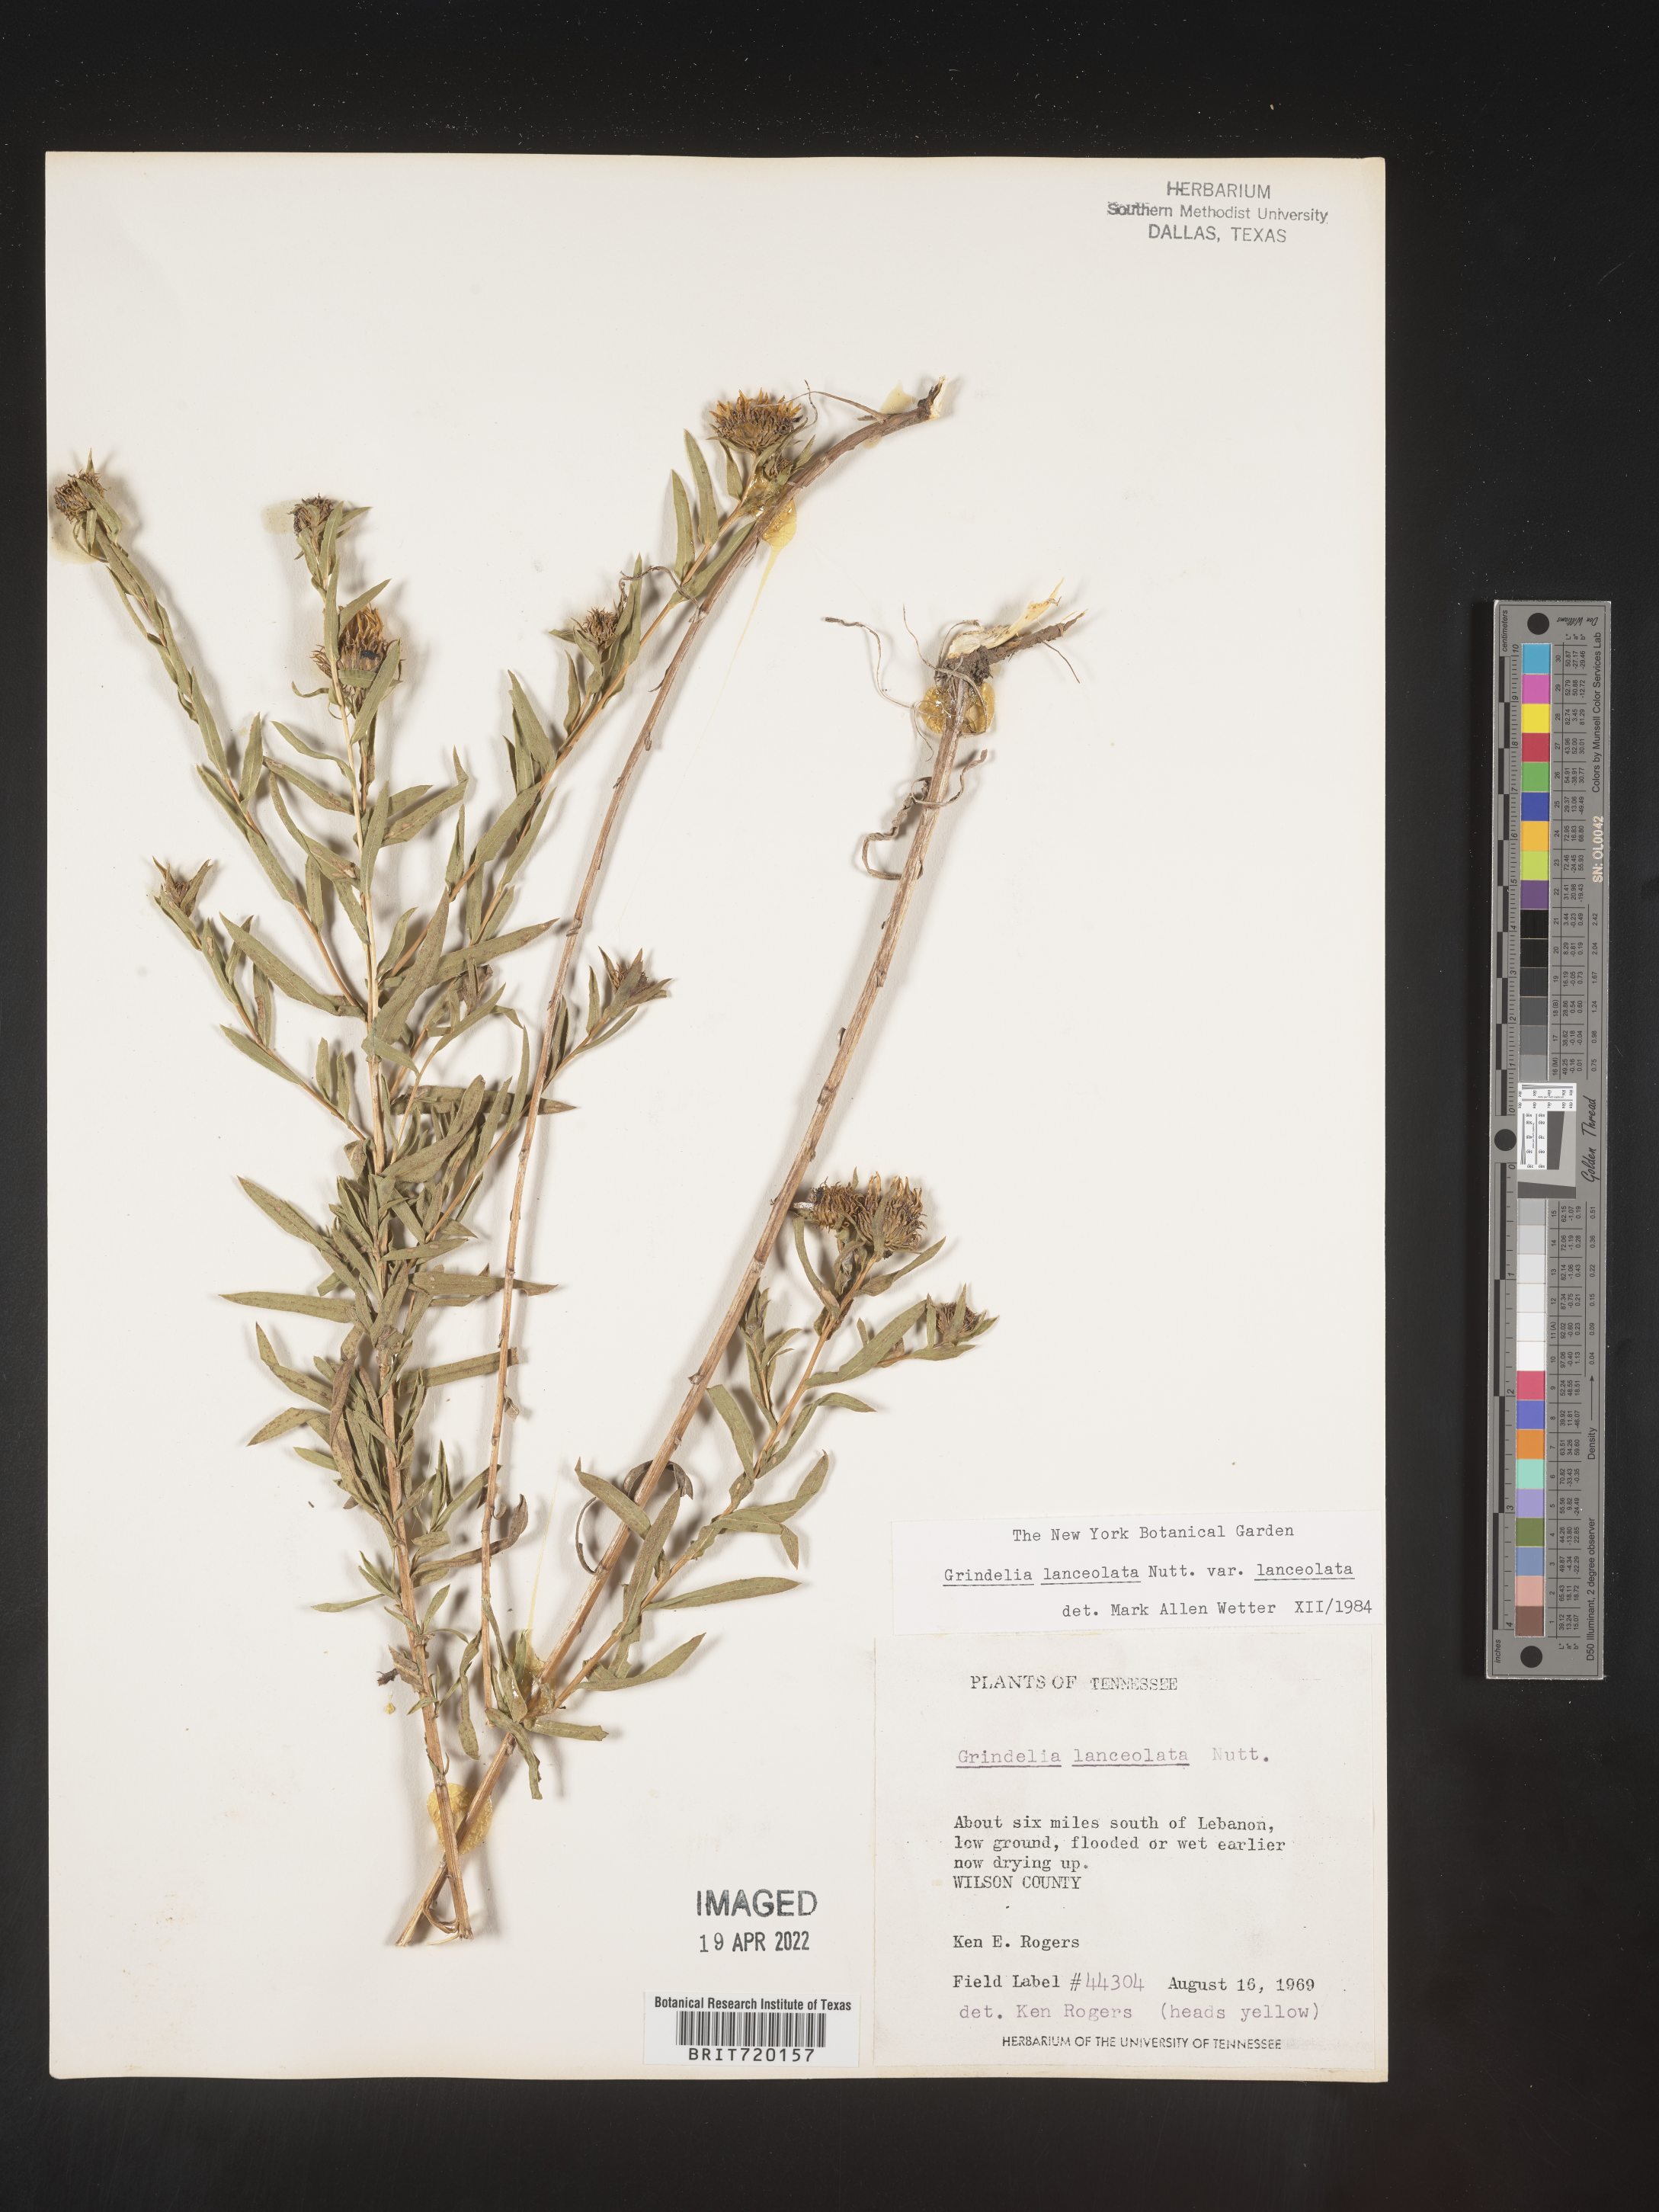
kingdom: Plantae
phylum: Tracheophyta
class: Magnoliopsida
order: Asterales
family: Asteraceae
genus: Grindelia
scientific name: Grindelia lanceolata
